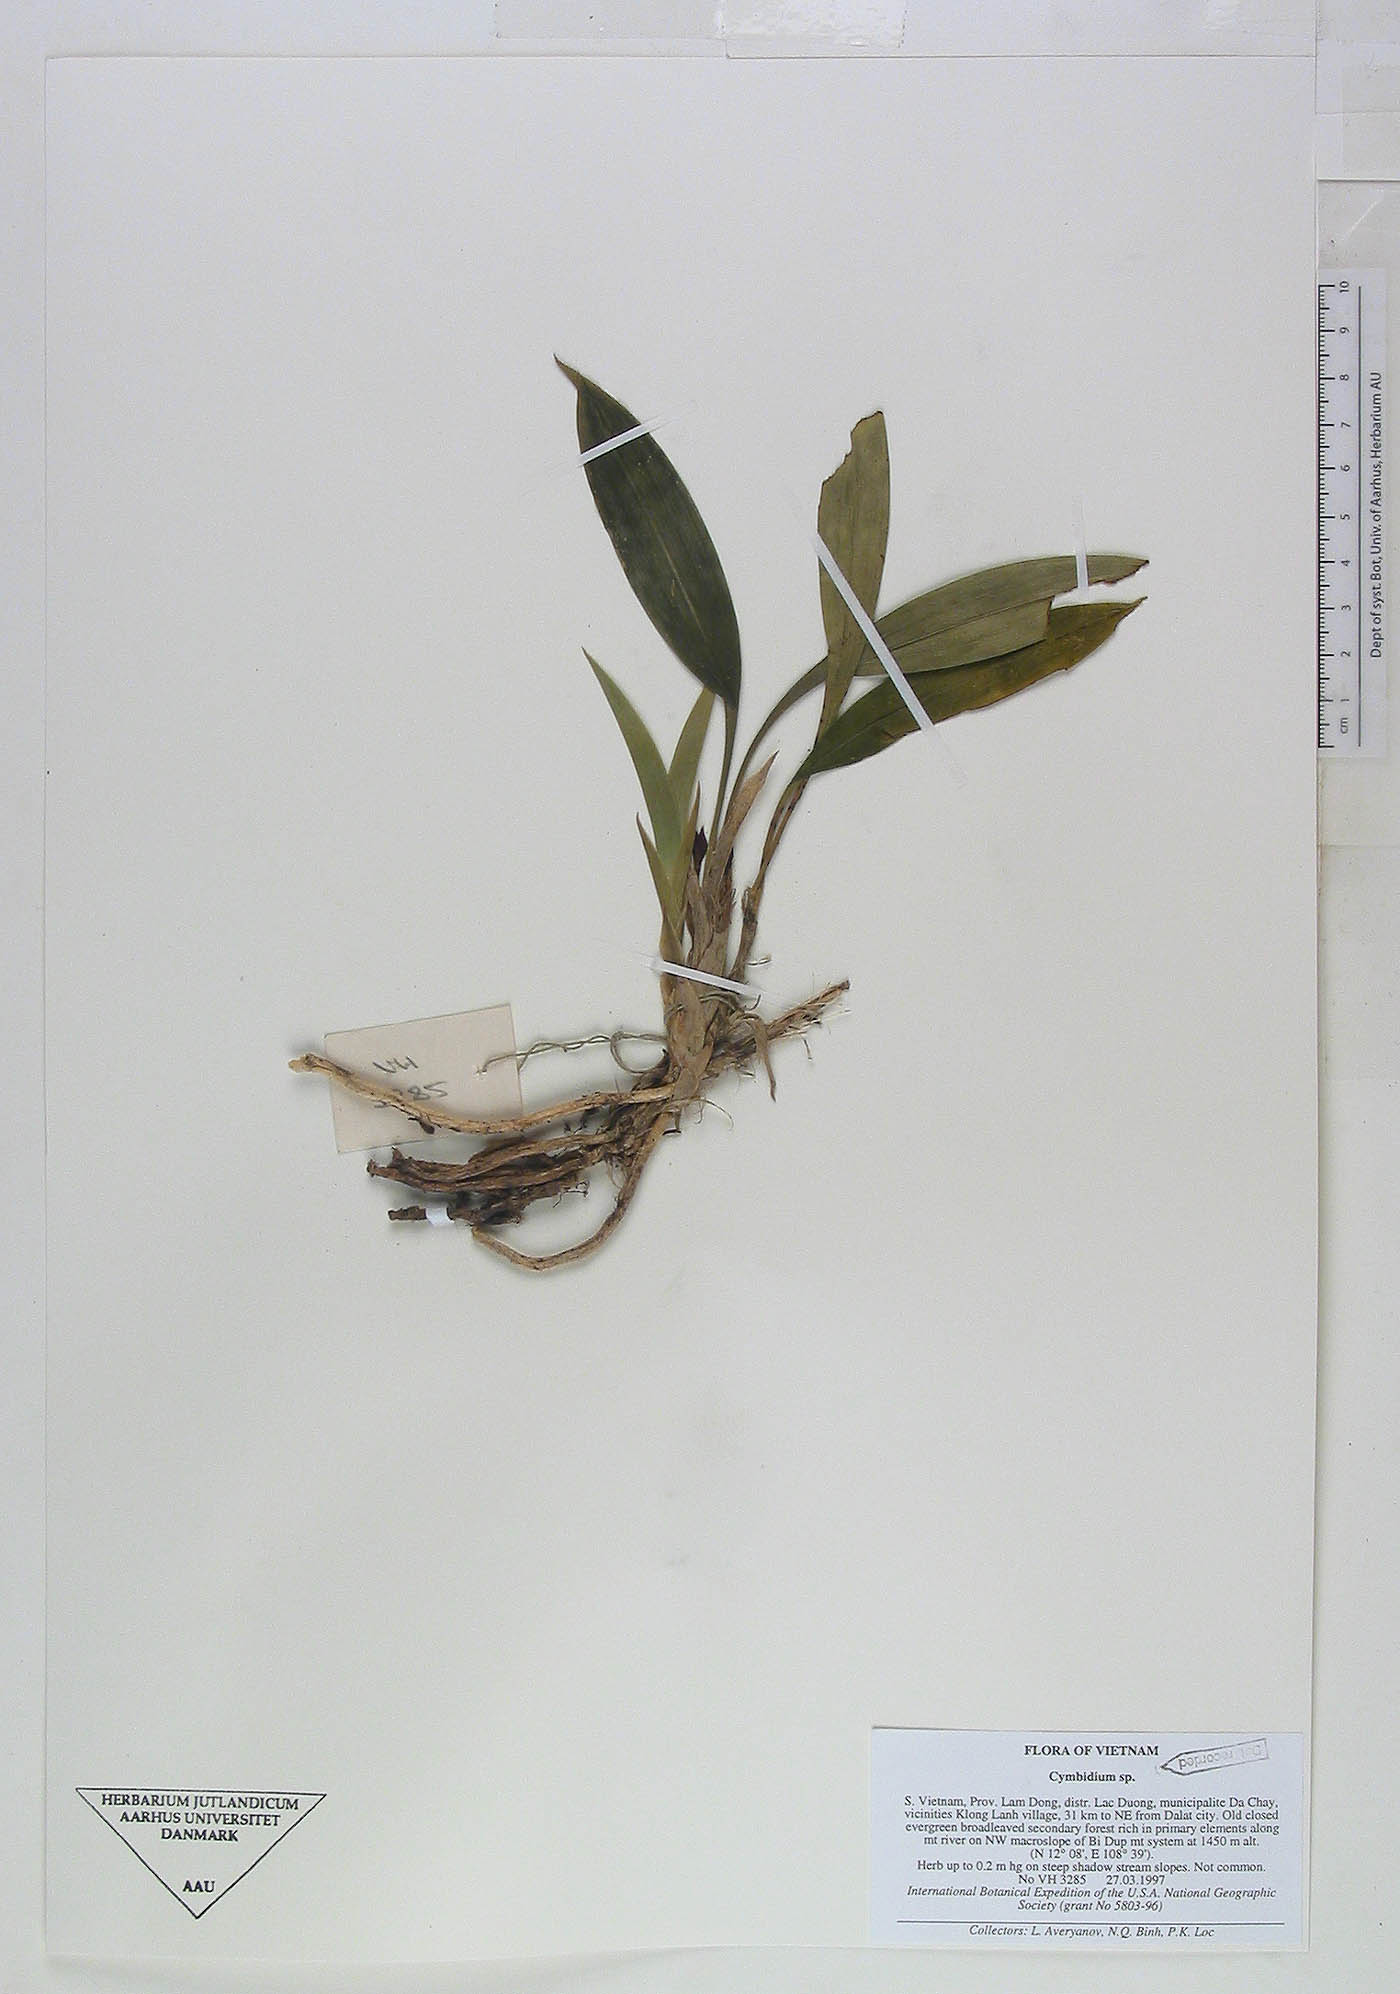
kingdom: Plantae
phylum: Tracheophyta
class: Liliopsida
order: Asparagales
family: Orchidaceae
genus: Cymbidium
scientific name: Cymbidium
